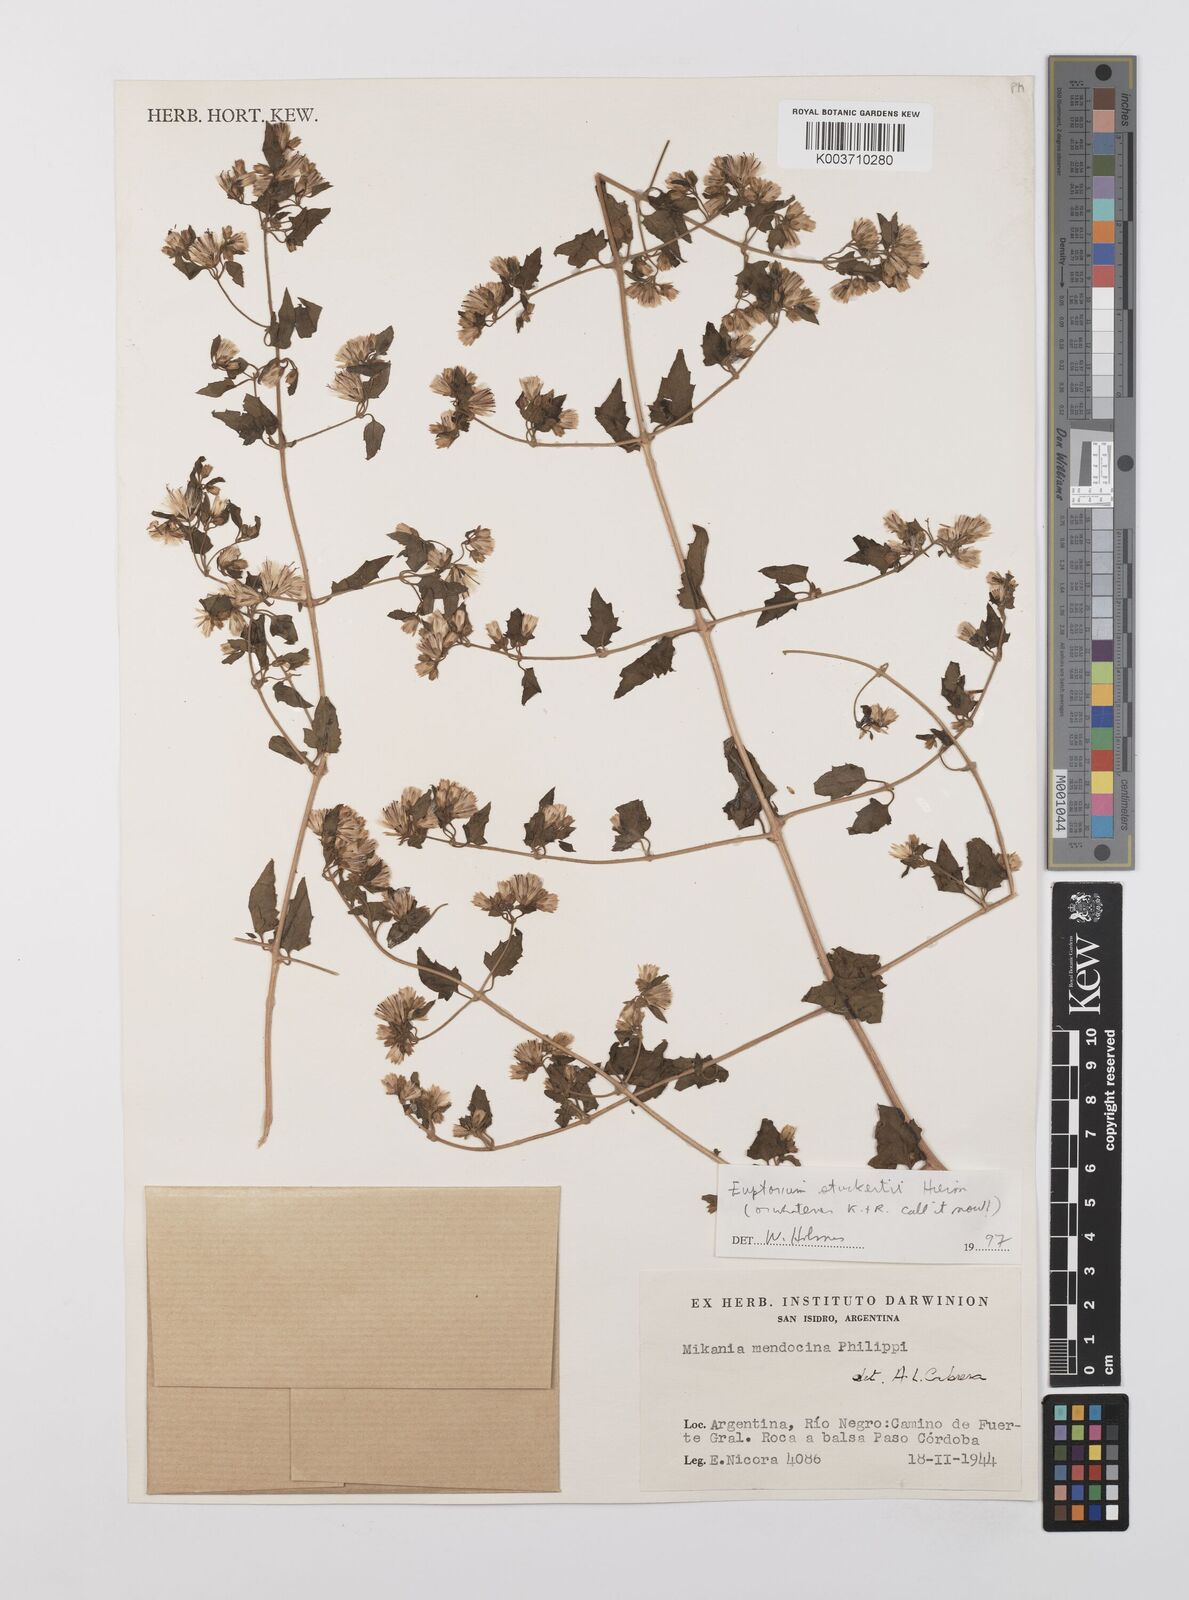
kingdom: Plantae
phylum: Tracheophyta
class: Magnoliopsida
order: Asterales
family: Asteraceae
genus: Austrobrickellia
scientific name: Austrobrickellia
